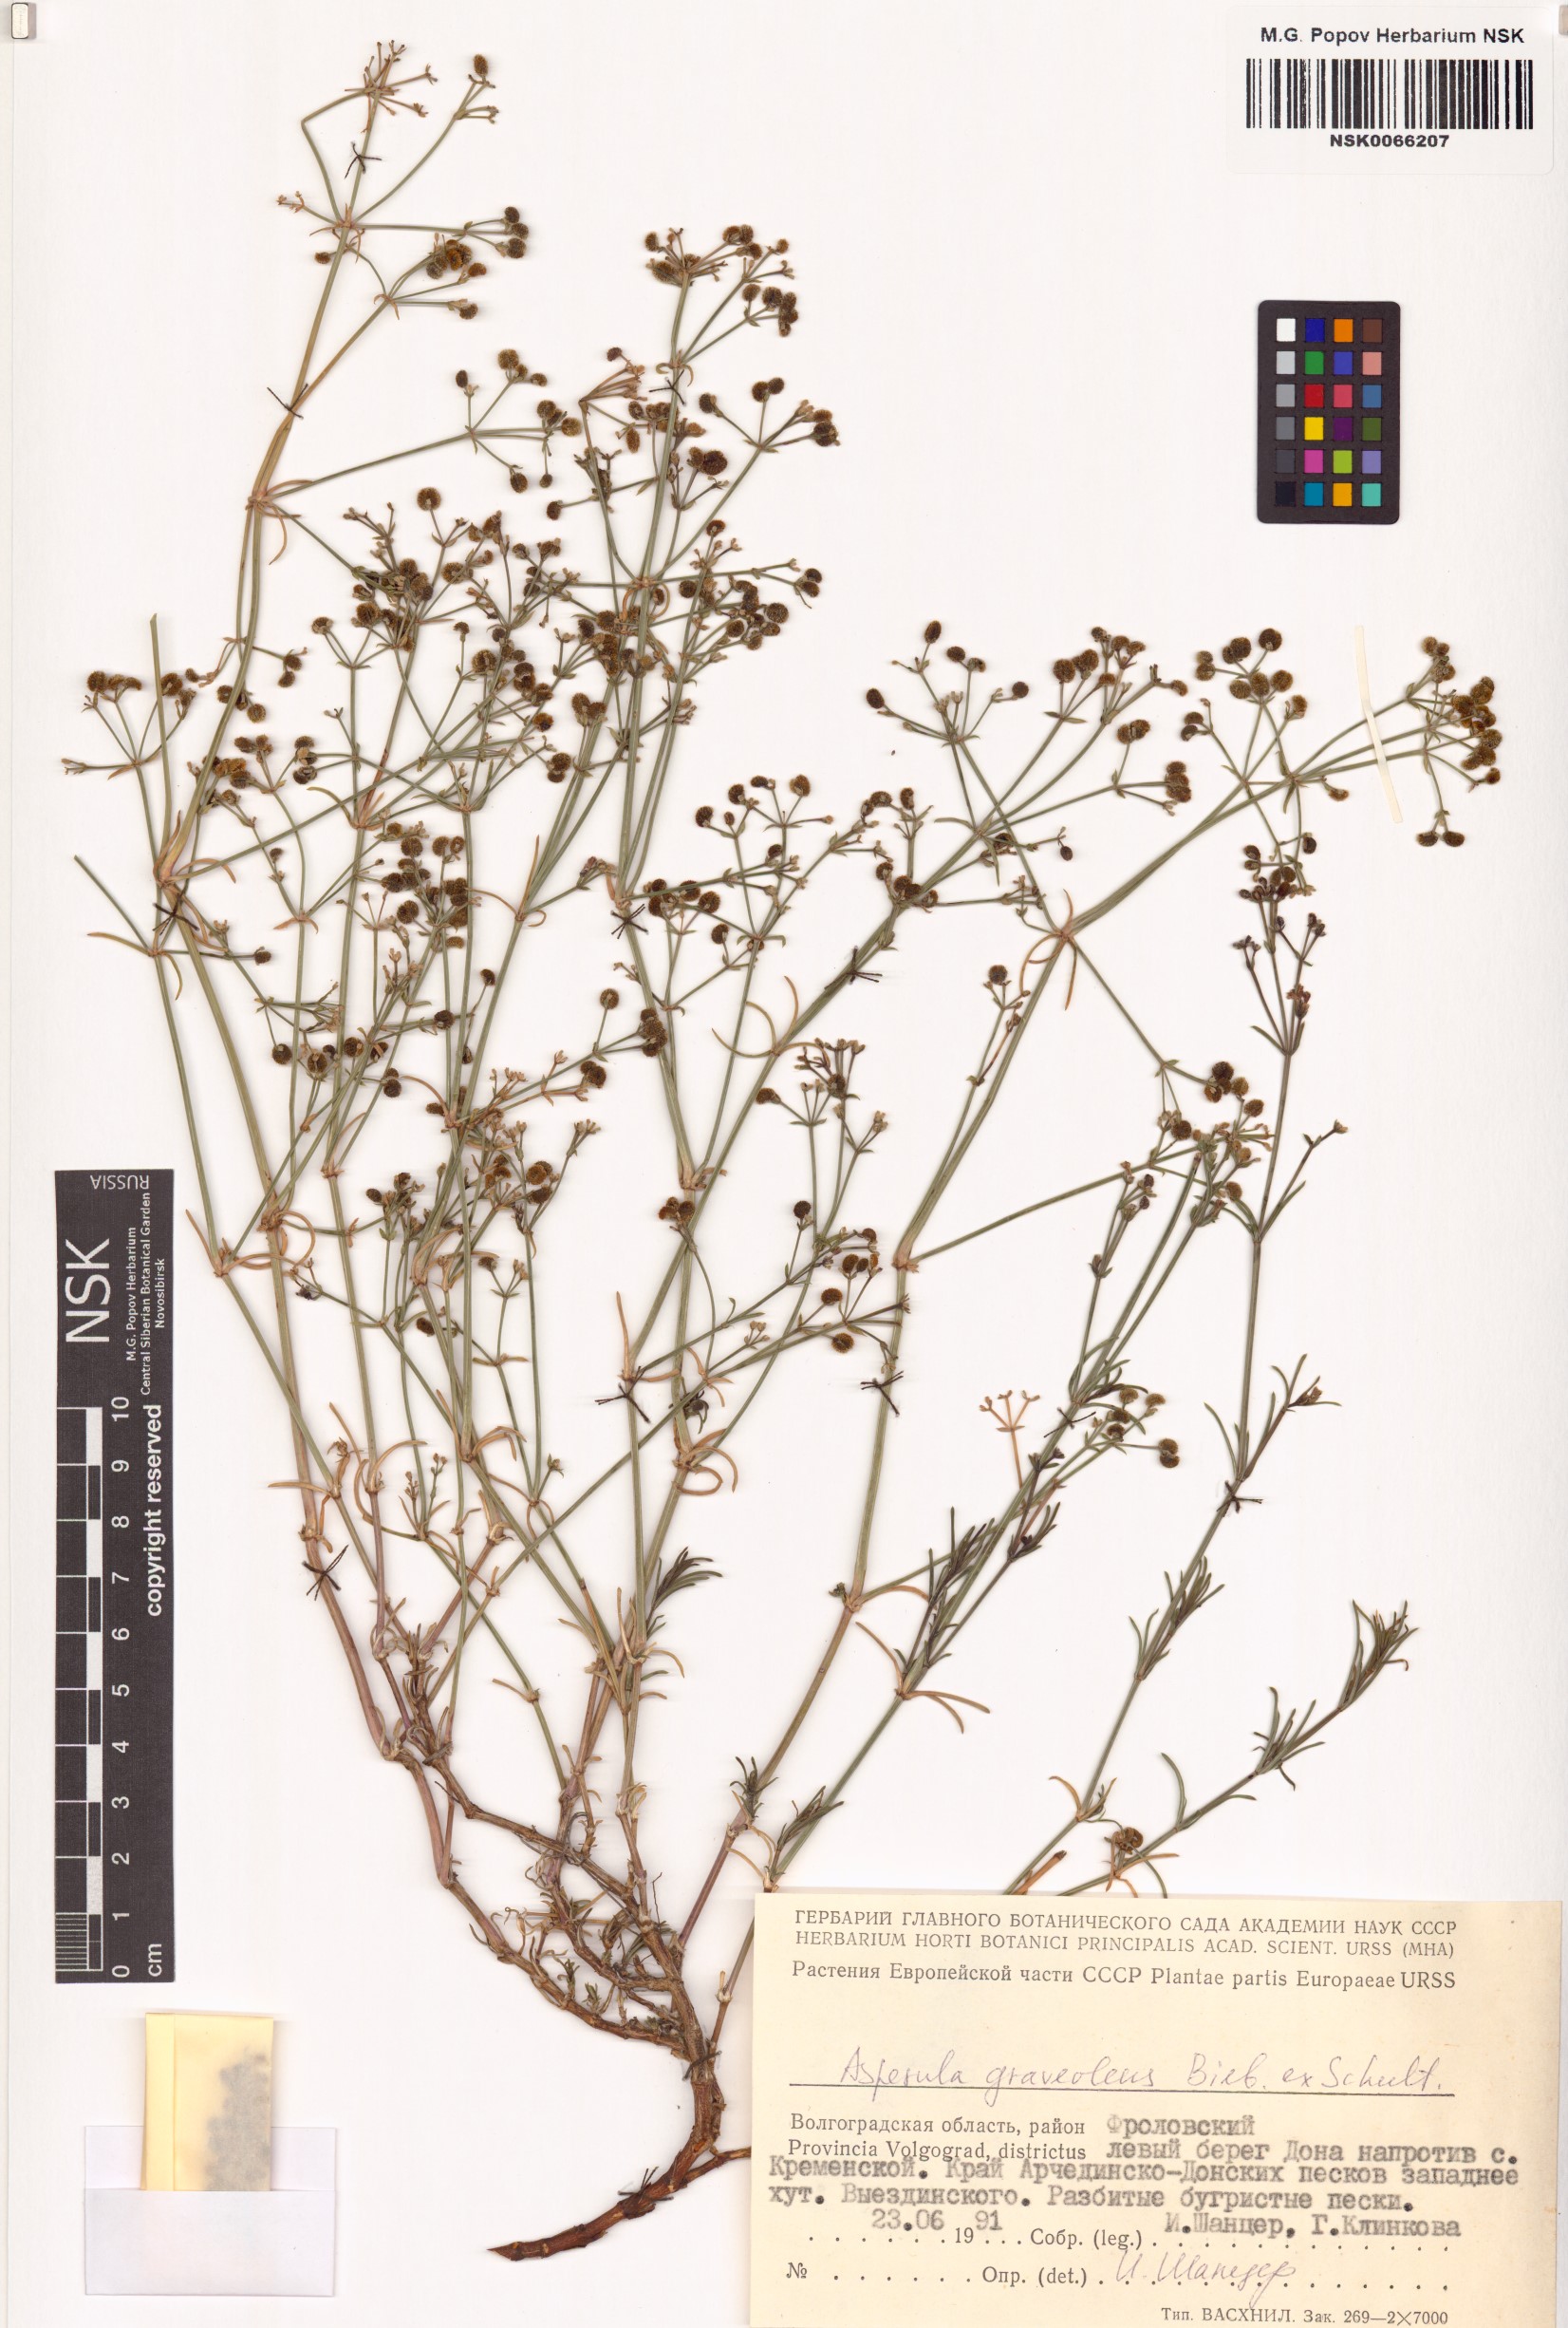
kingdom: Plantae
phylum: Tracheophyta
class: Magnoliopsida
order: Gentianales
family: Rubiaceae
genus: Cynanchica
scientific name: Cynanchica graveolens
